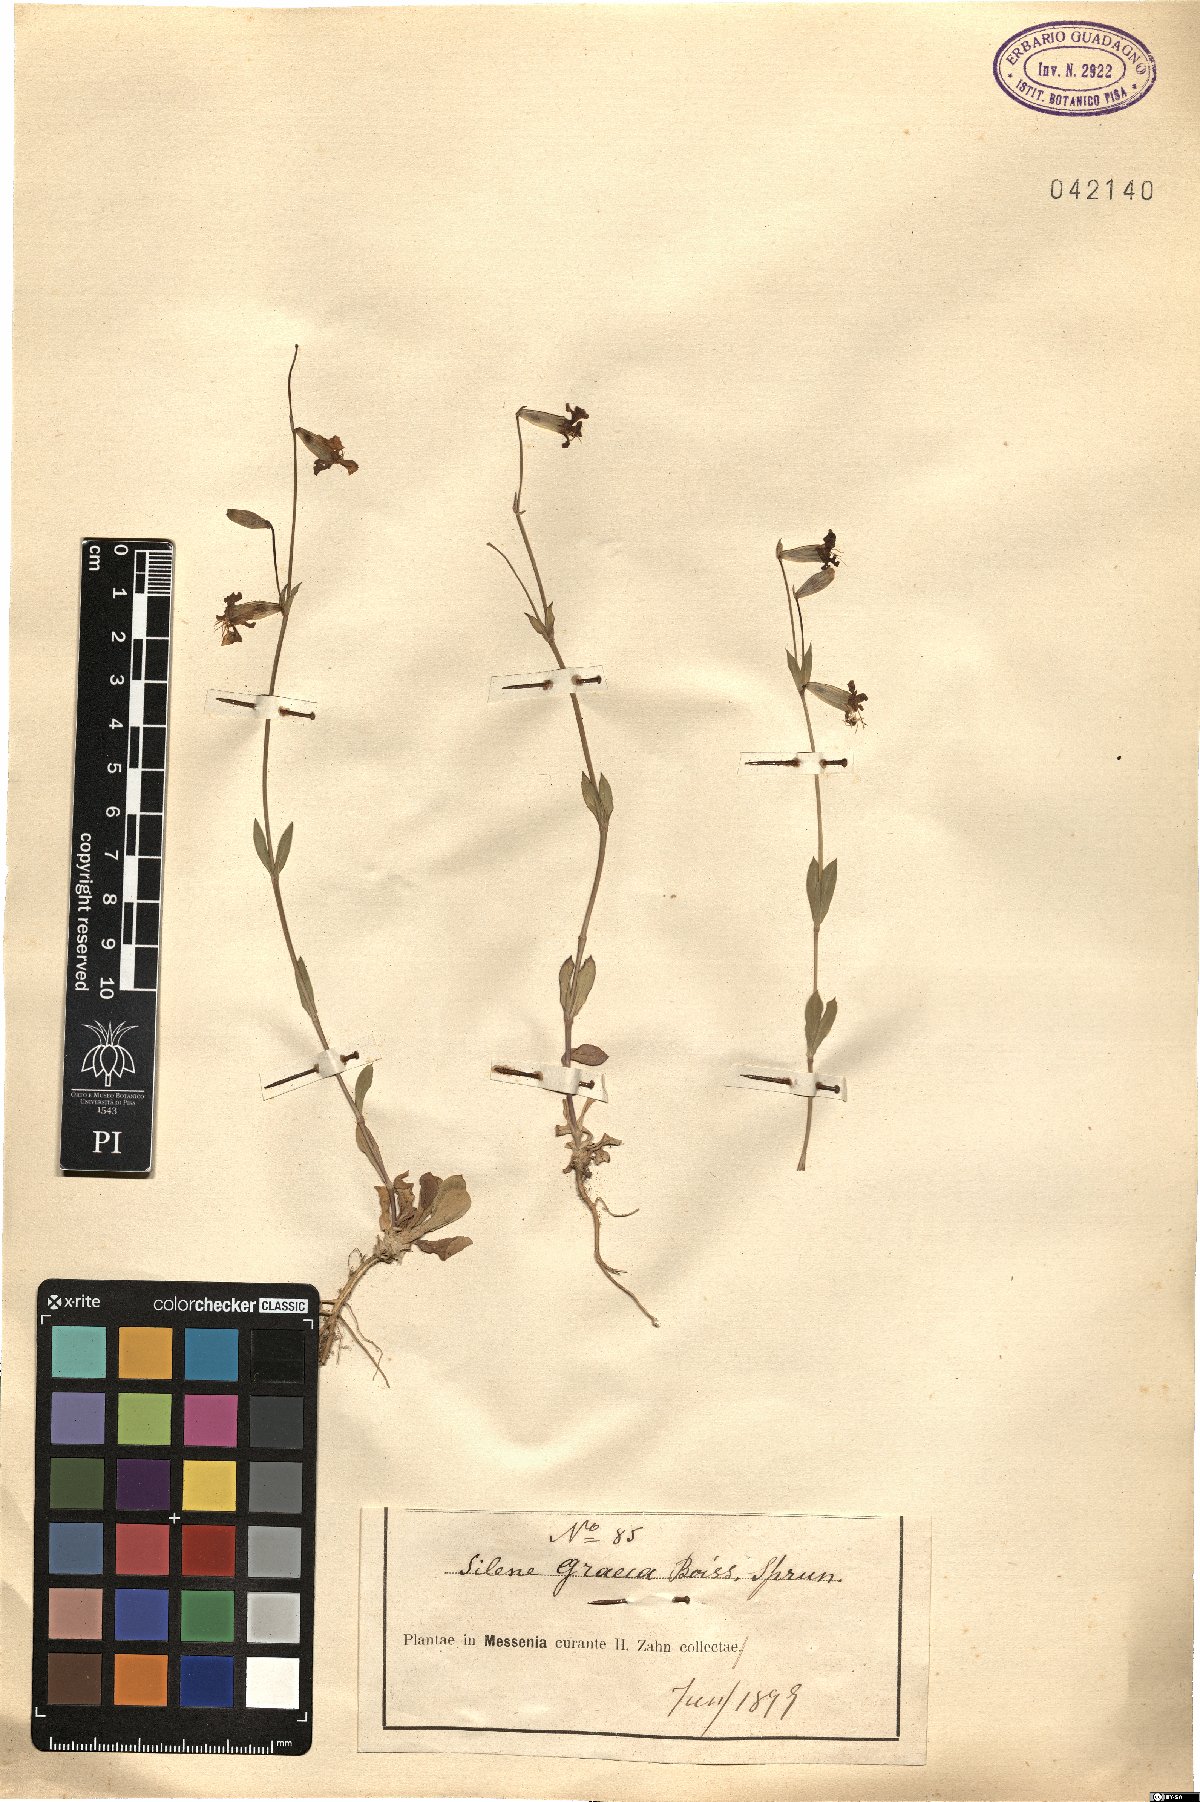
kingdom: Plantae
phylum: Tracheophyta
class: Magnoliopsida
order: Caryophyllales
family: Caryophyllaceae
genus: Silene
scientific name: Silene graeca
